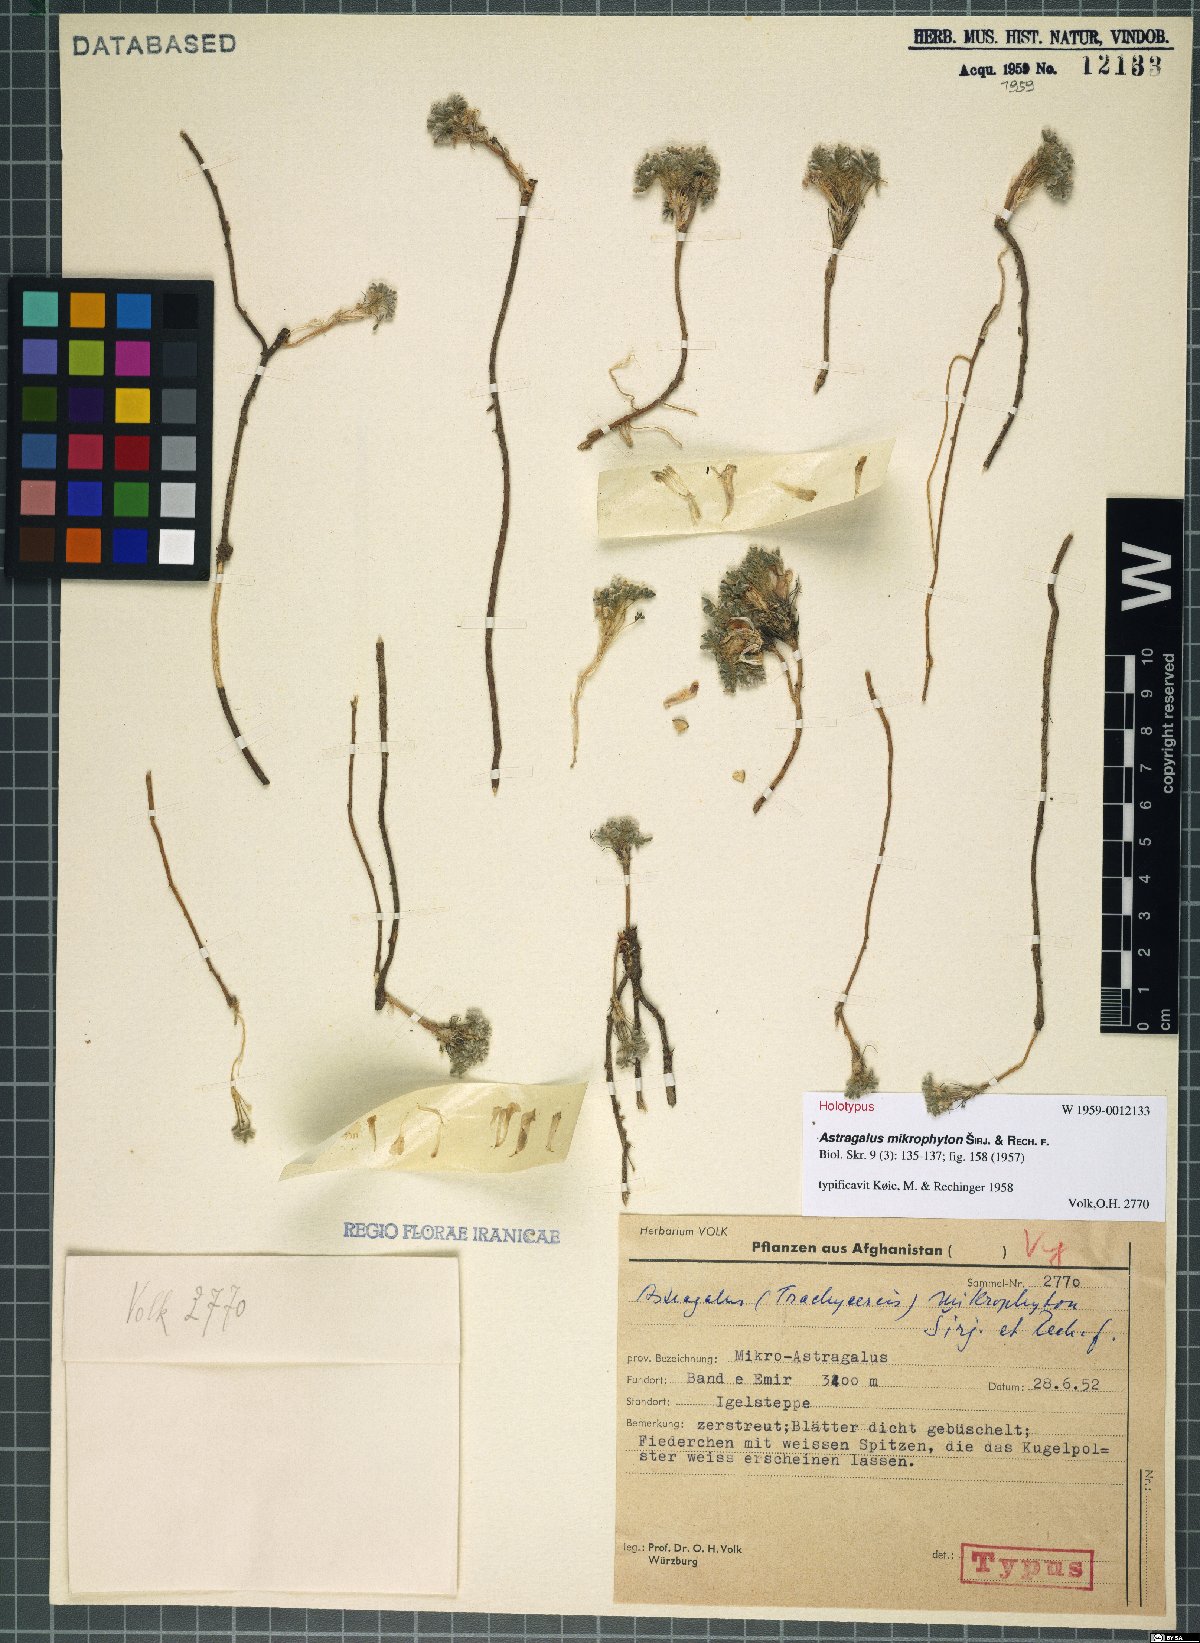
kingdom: Plantae
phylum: Tracheophyta
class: Magnoliopsida
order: Fabales
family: Fabaceae
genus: Astragalus
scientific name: Astragalus mikrophyton
